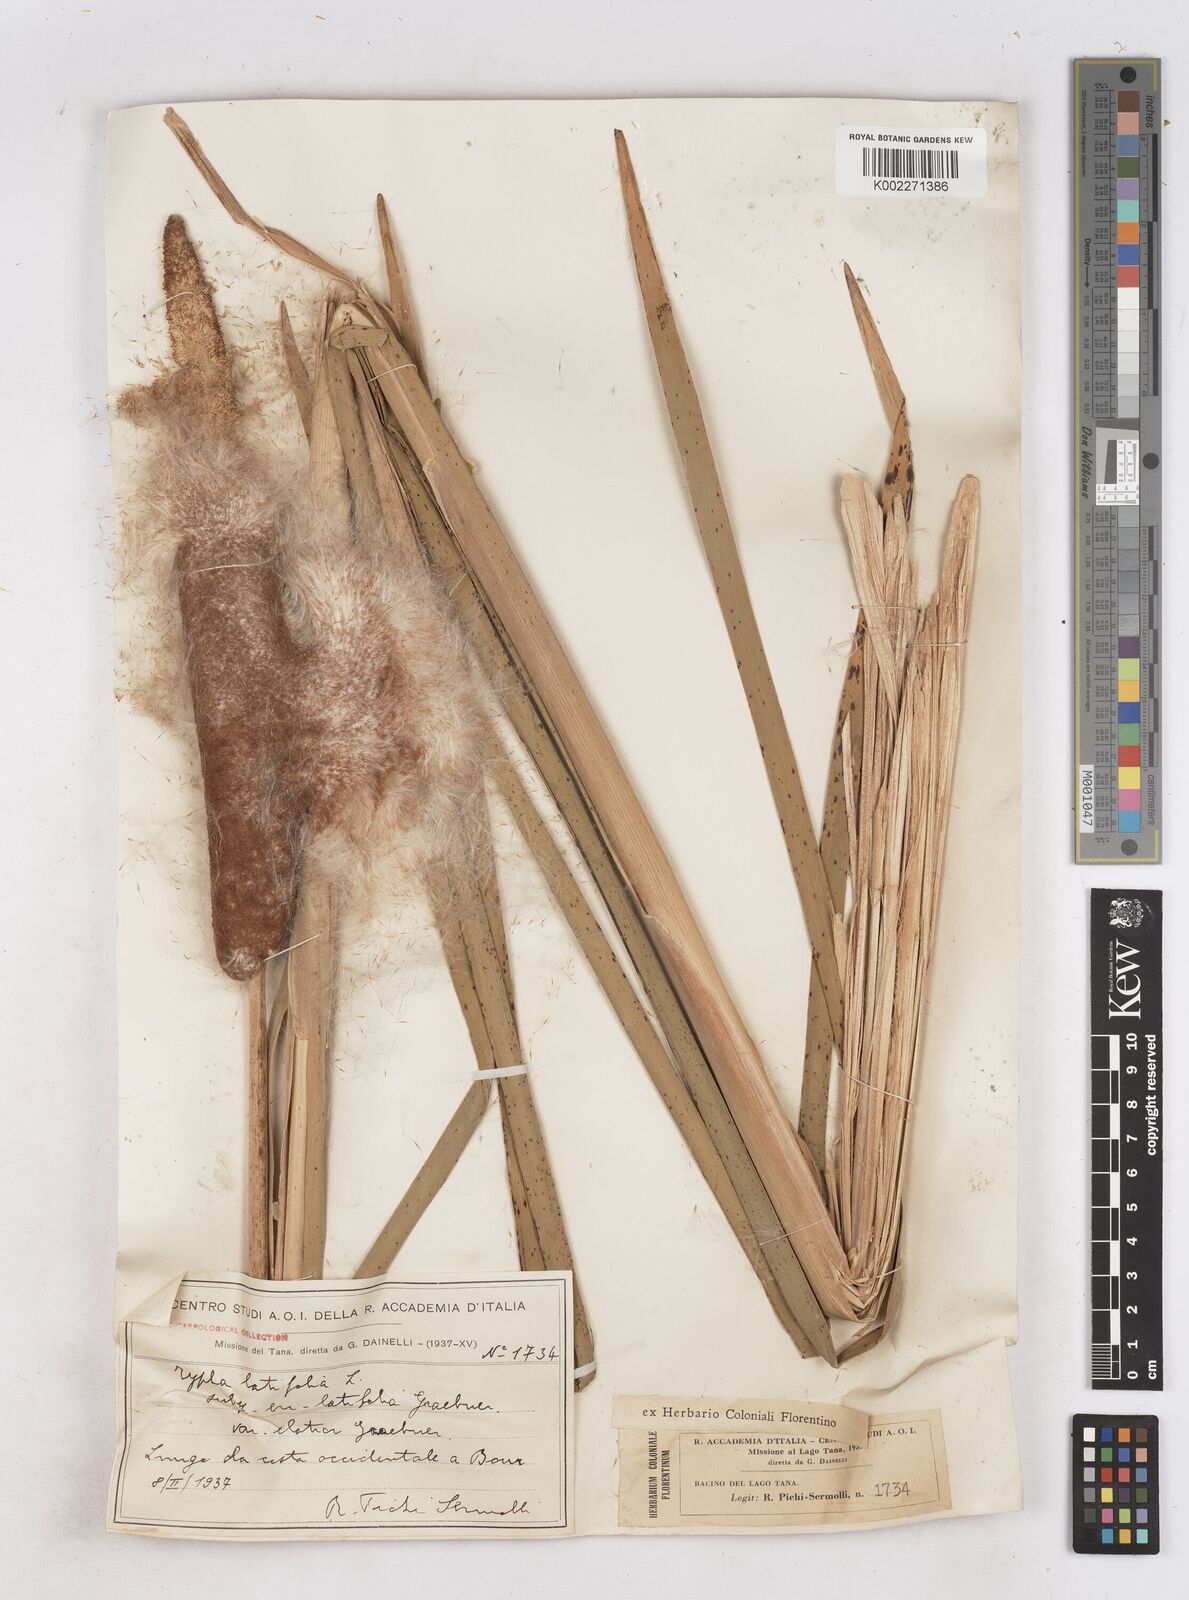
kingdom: Plantae
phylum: Tracheophyta
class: Liliopsida
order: Poales
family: Typhaceae
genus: Typha
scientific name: Typha latifolia
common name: Broadleaf cattail
